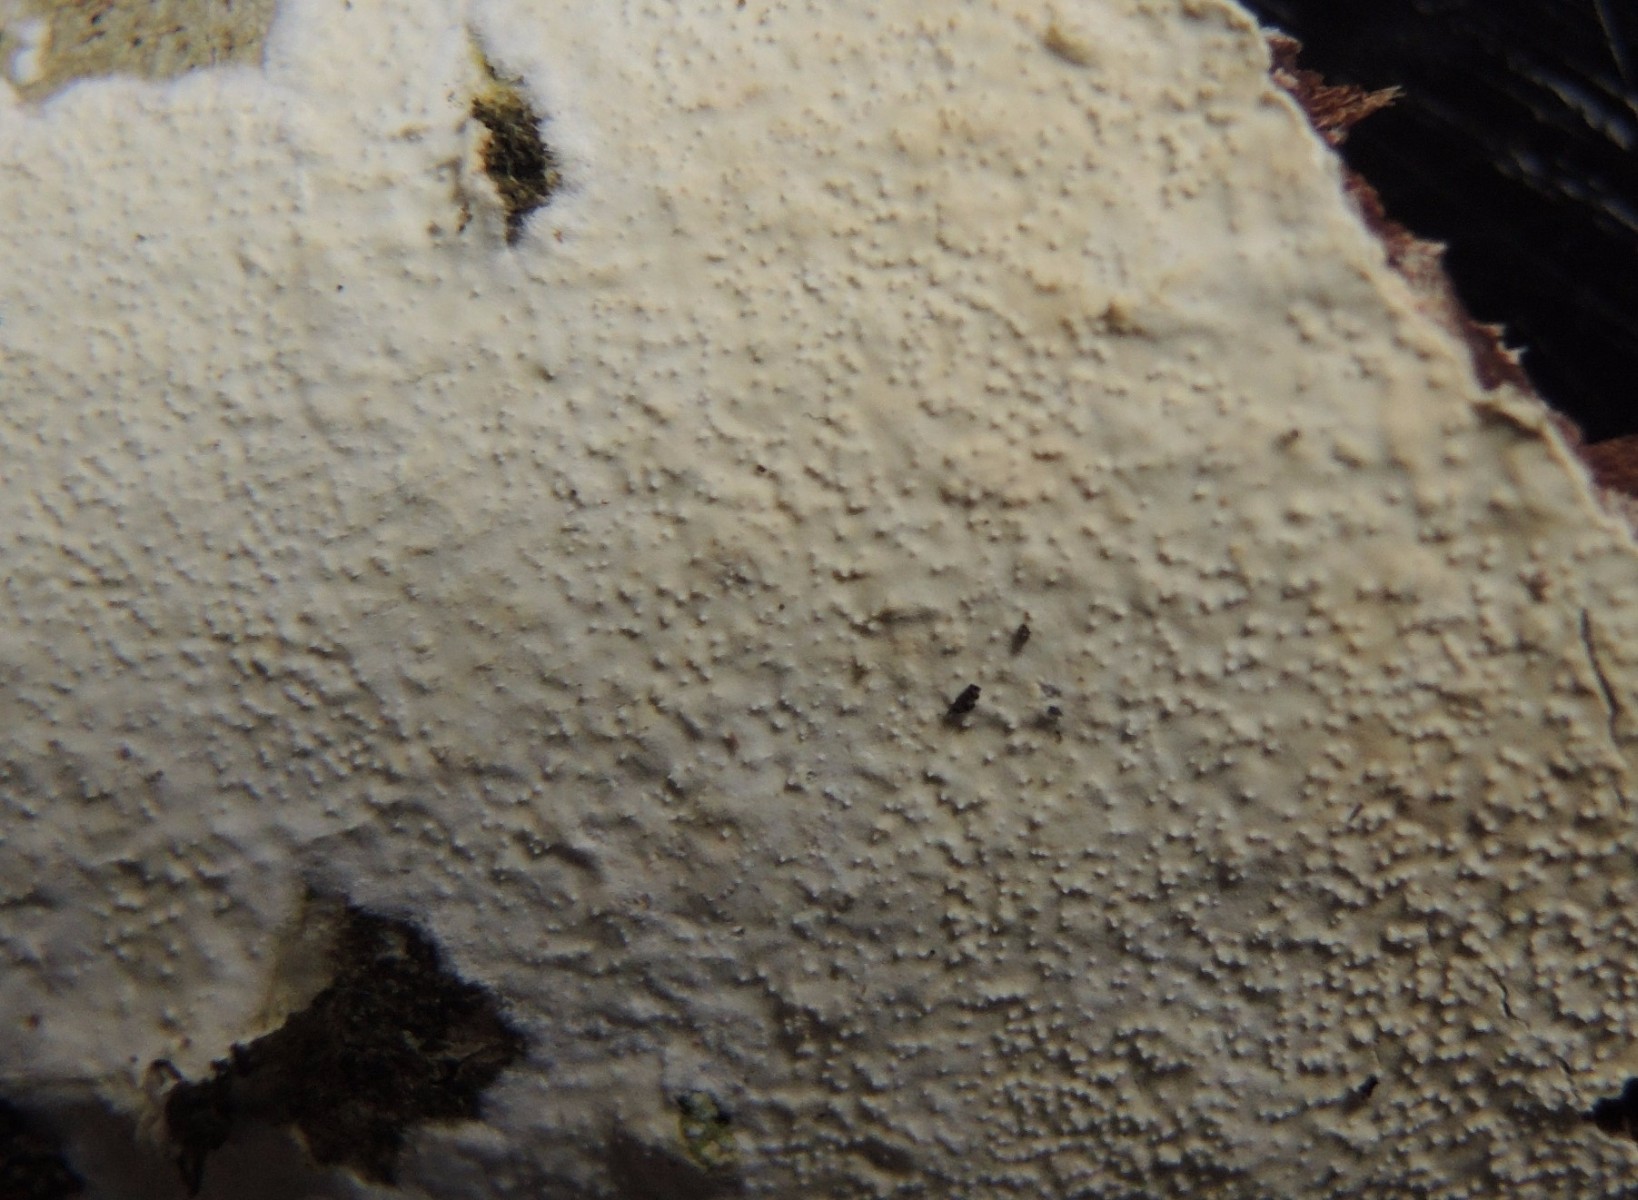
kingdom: Fungi
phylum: Basidiomycota
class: Agaricomycetes
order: Corticiales
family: Corticiaceae
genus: Lyomyces
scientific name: Lyomyces crustosus
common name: vortet hyldehinde
